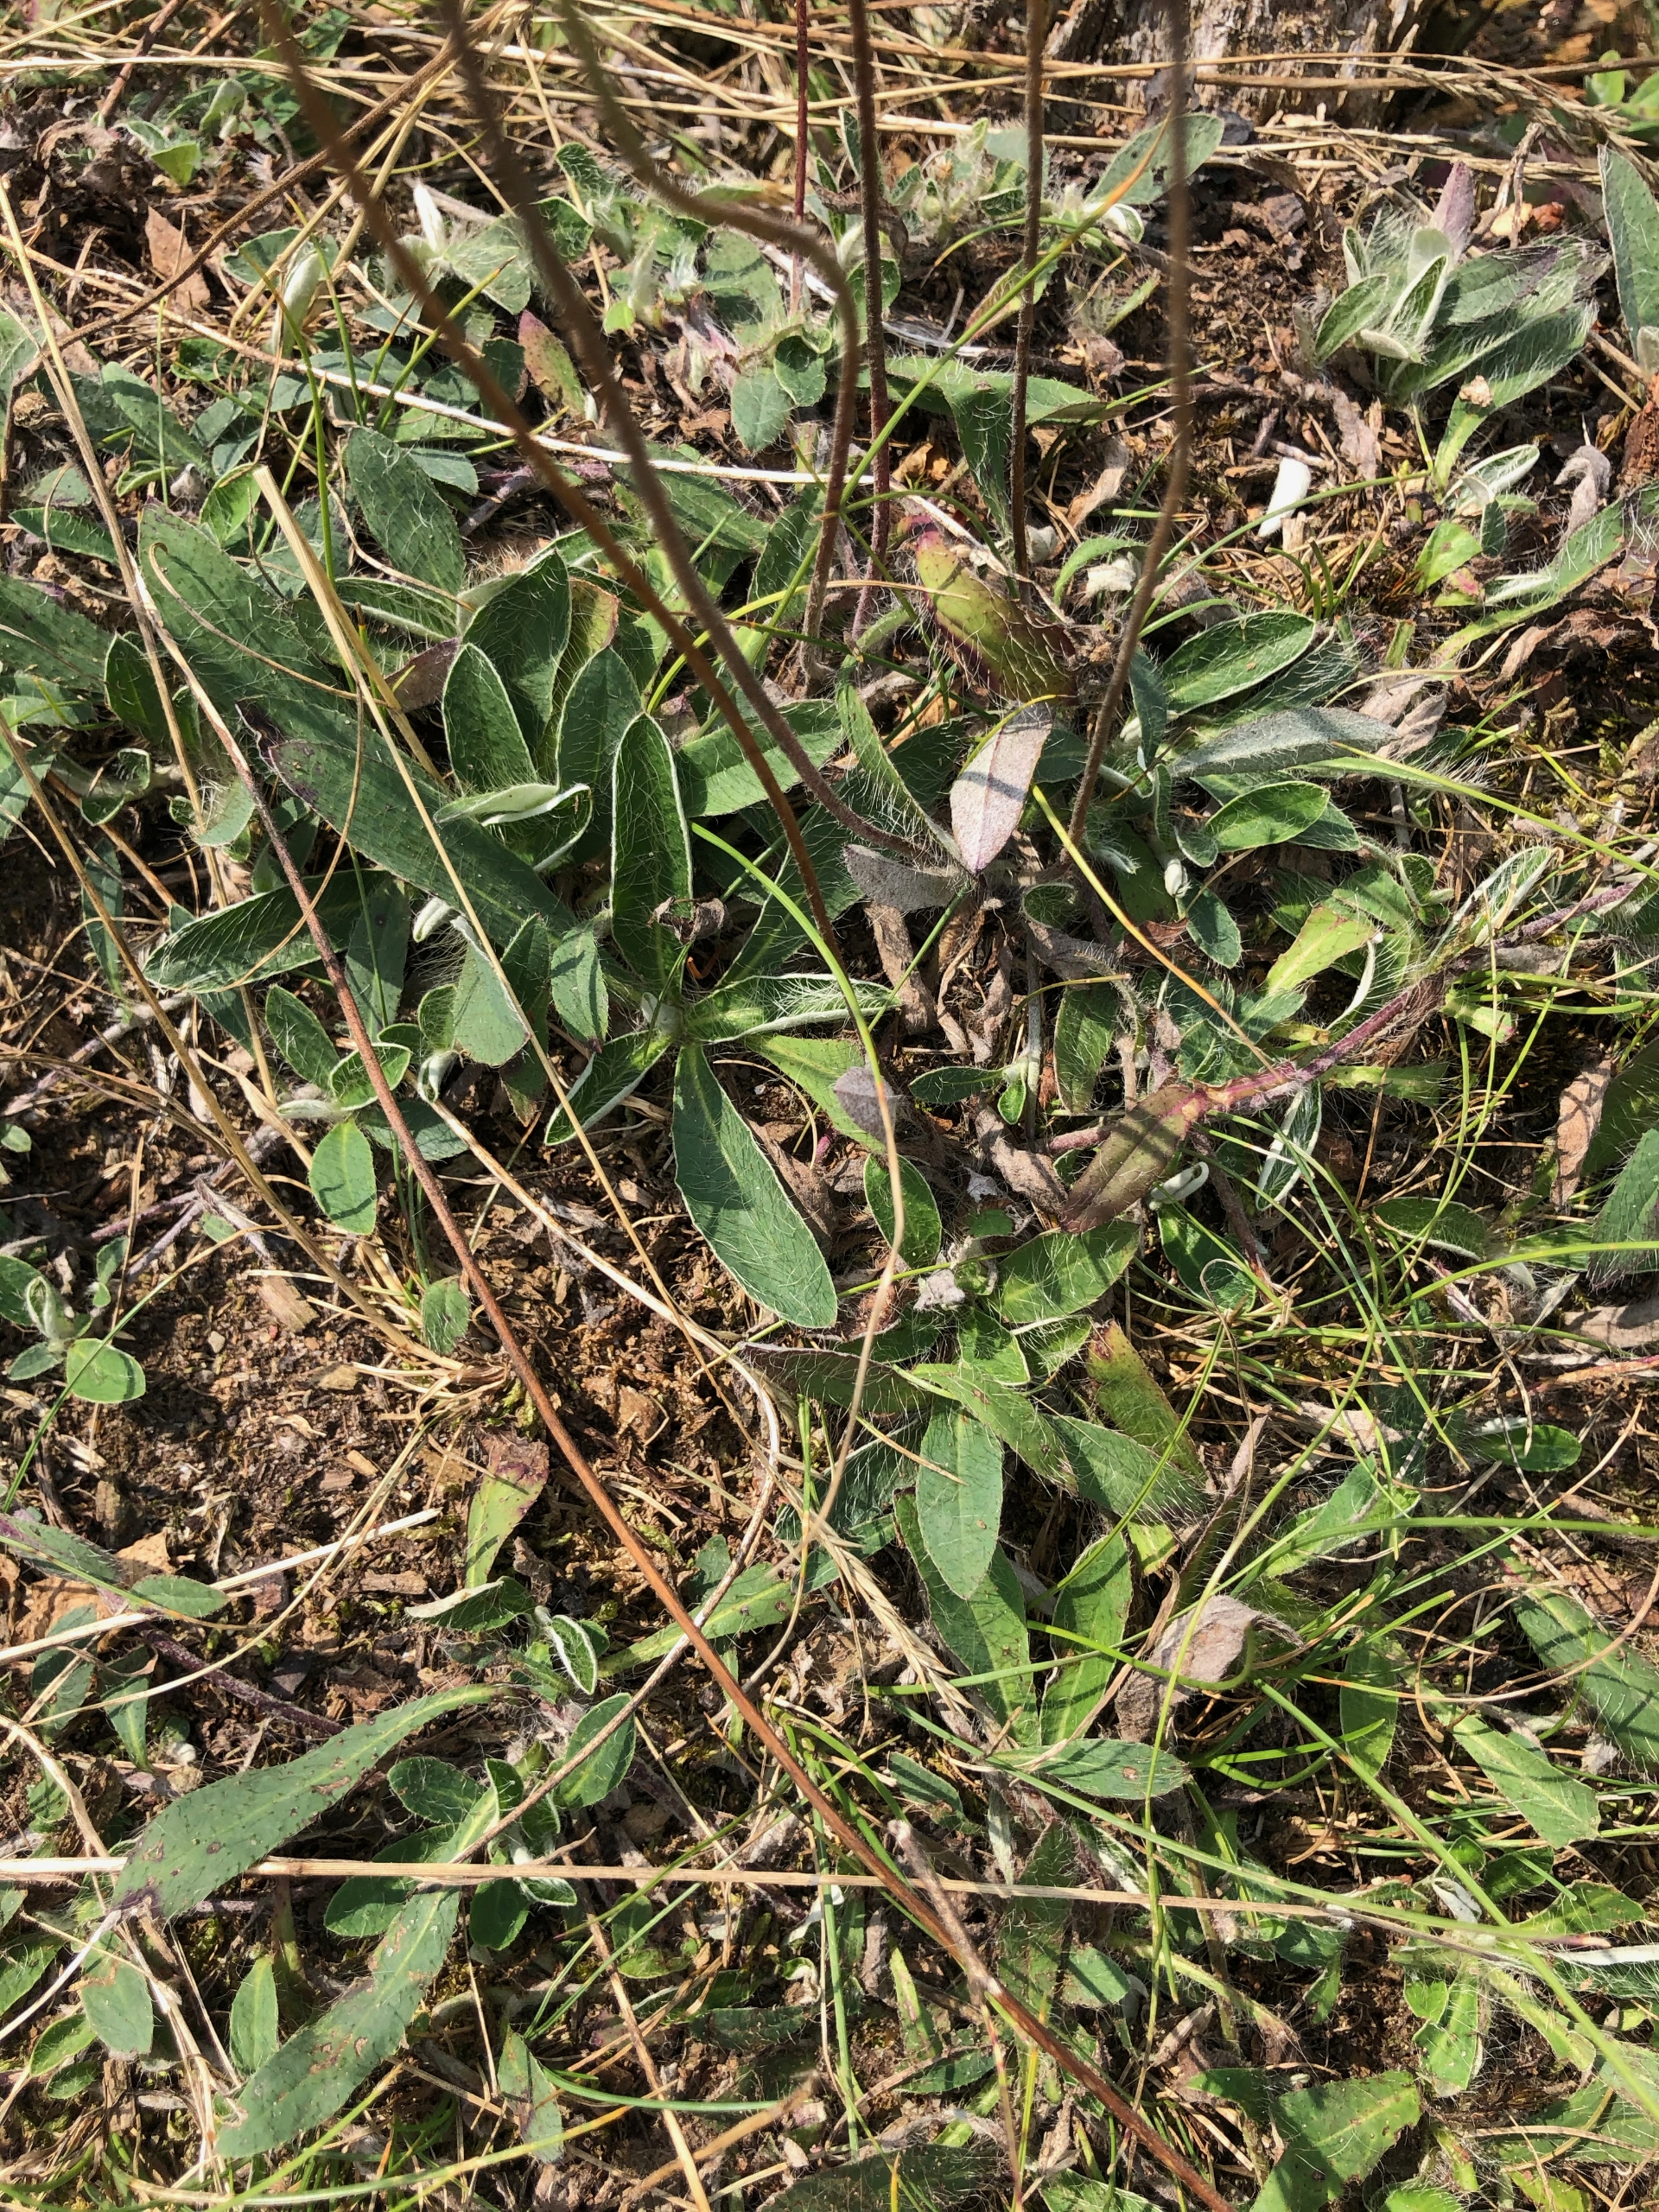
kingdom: Plantae
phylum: Tracheophyta
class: Magnoliopsida
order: Asterales
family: Asteraceae
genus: Pilosella
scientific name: Pilosella officinarum
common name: Håret høgeurt
